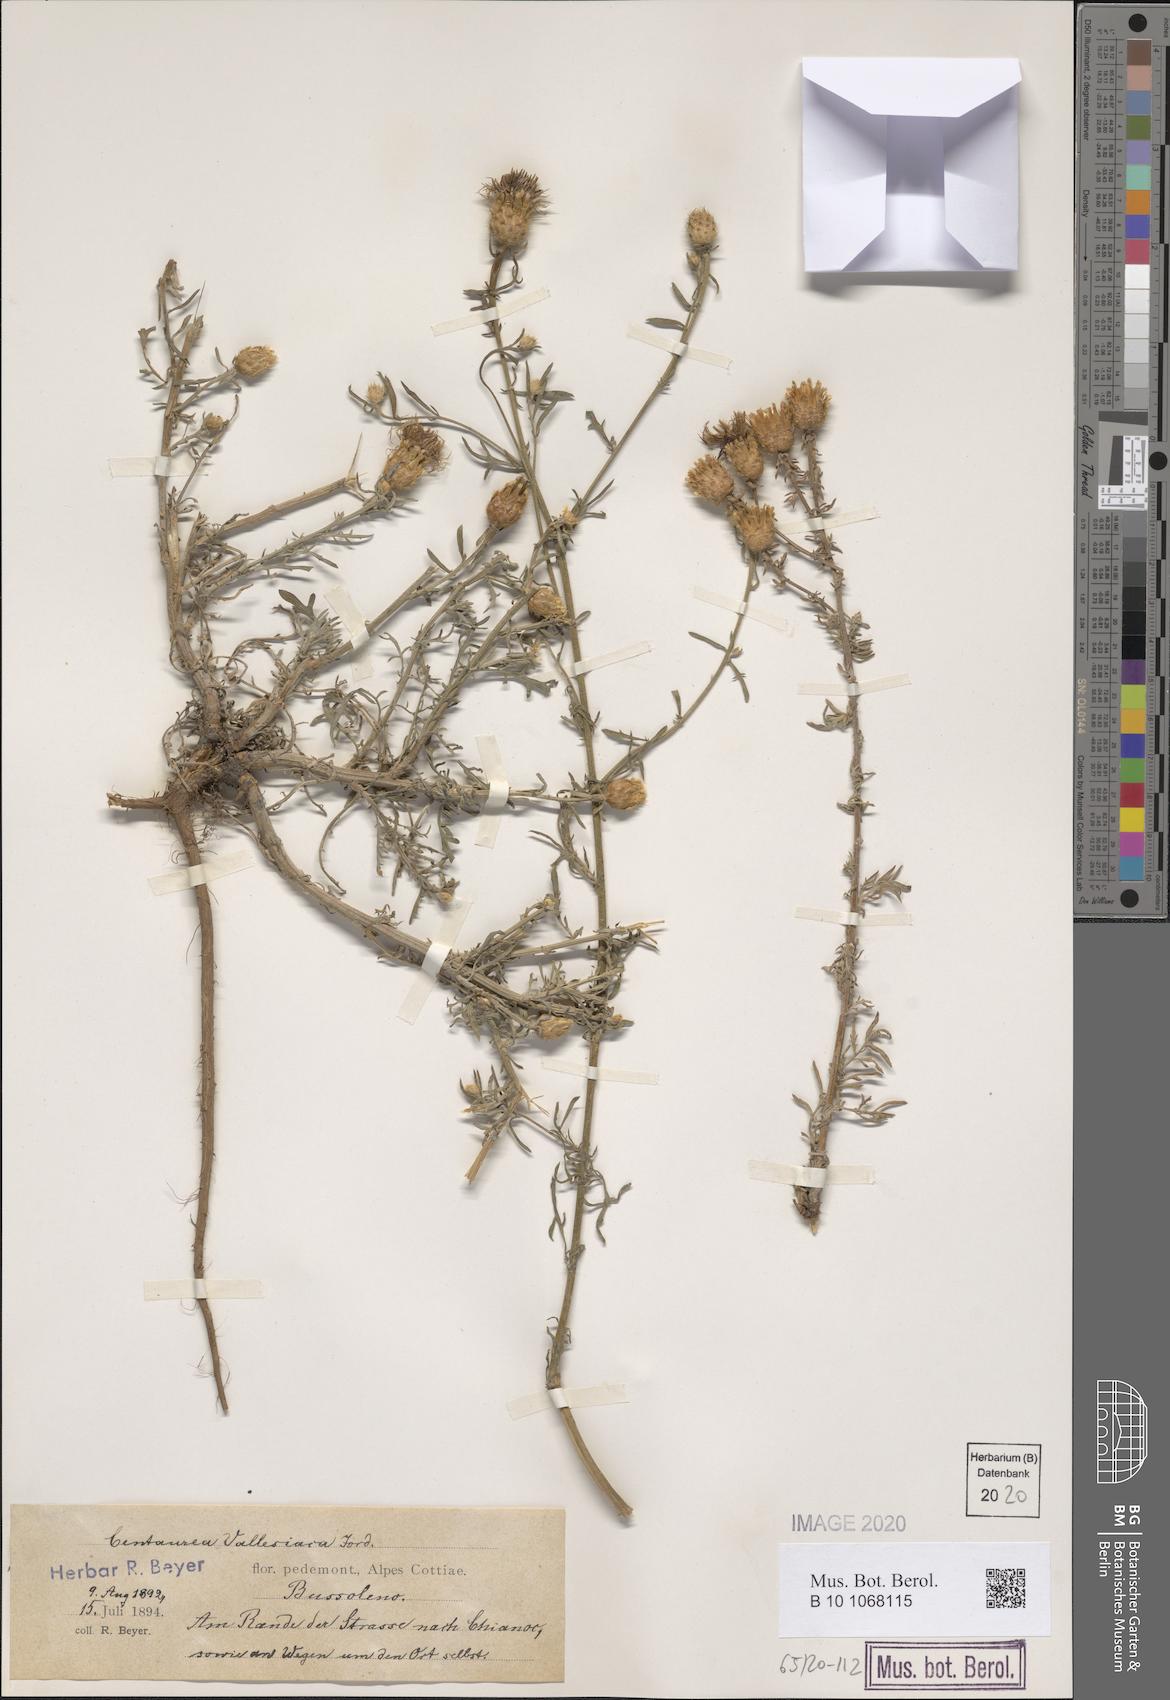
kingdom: Plantae
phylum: Tracheophyta
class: Magnoliopsida
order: Asterales
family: Asteraceae
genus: Centaurea
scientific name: Centaurea valesiaca
